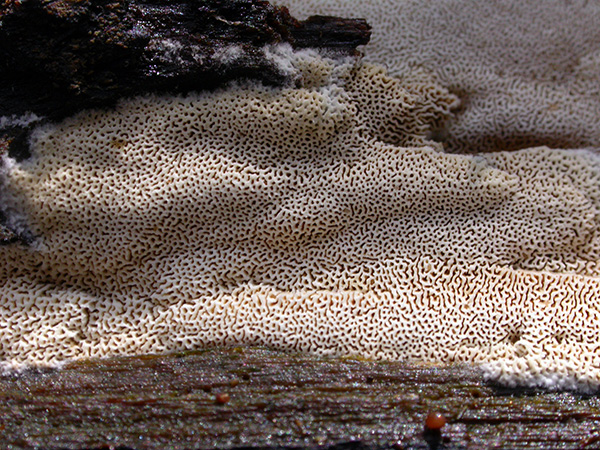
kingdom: Fungi
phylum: Basidiomycota
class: Agaricomycetes
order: Hymenochaetales
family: Schizoporaceae
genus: Xylodon
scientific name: Xylodon subtropicus
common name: labyrint-tandsvamp
